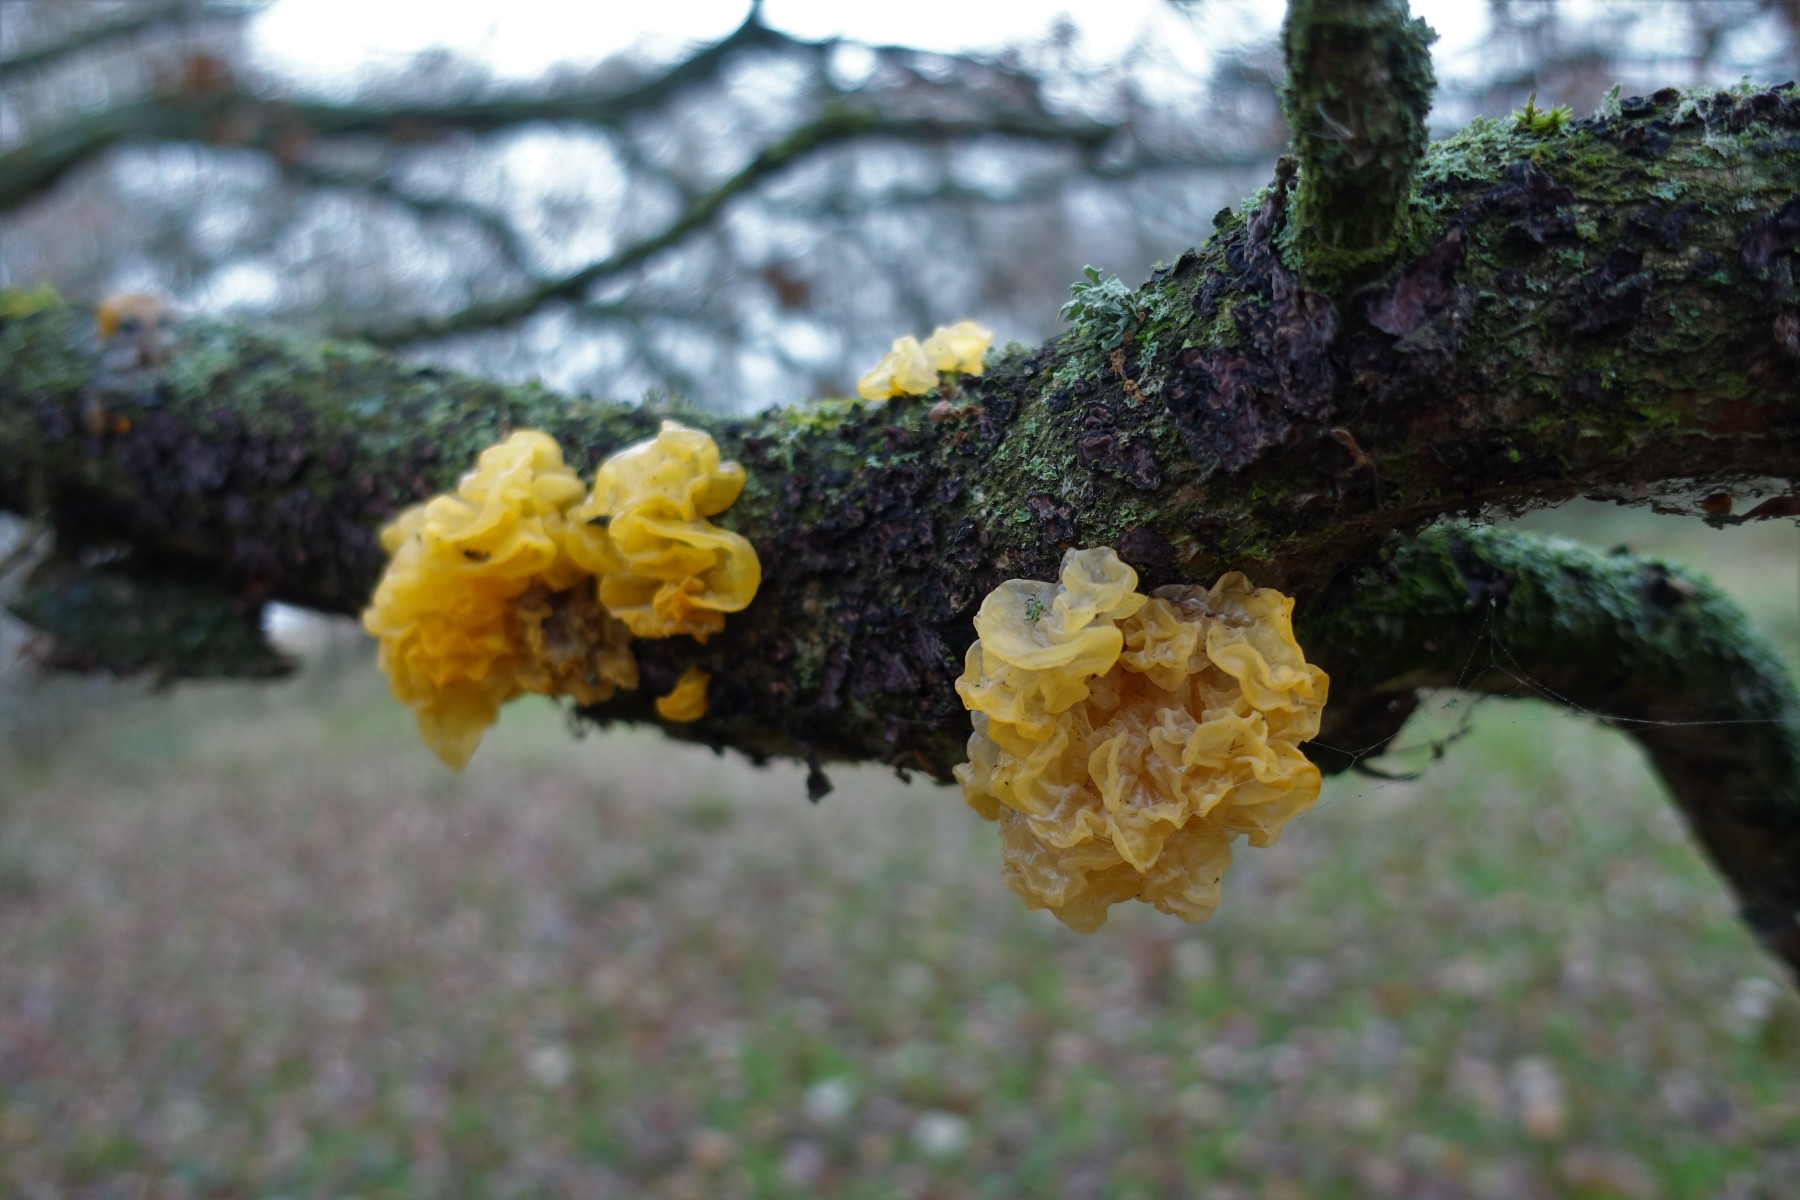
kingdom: Fungi
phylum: Basidiomycota
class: Tremellomycetes
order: Tremellales
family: Tremellaceae
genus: Tremella
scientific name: Tremella mesenterica
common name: gul bævresvamp
